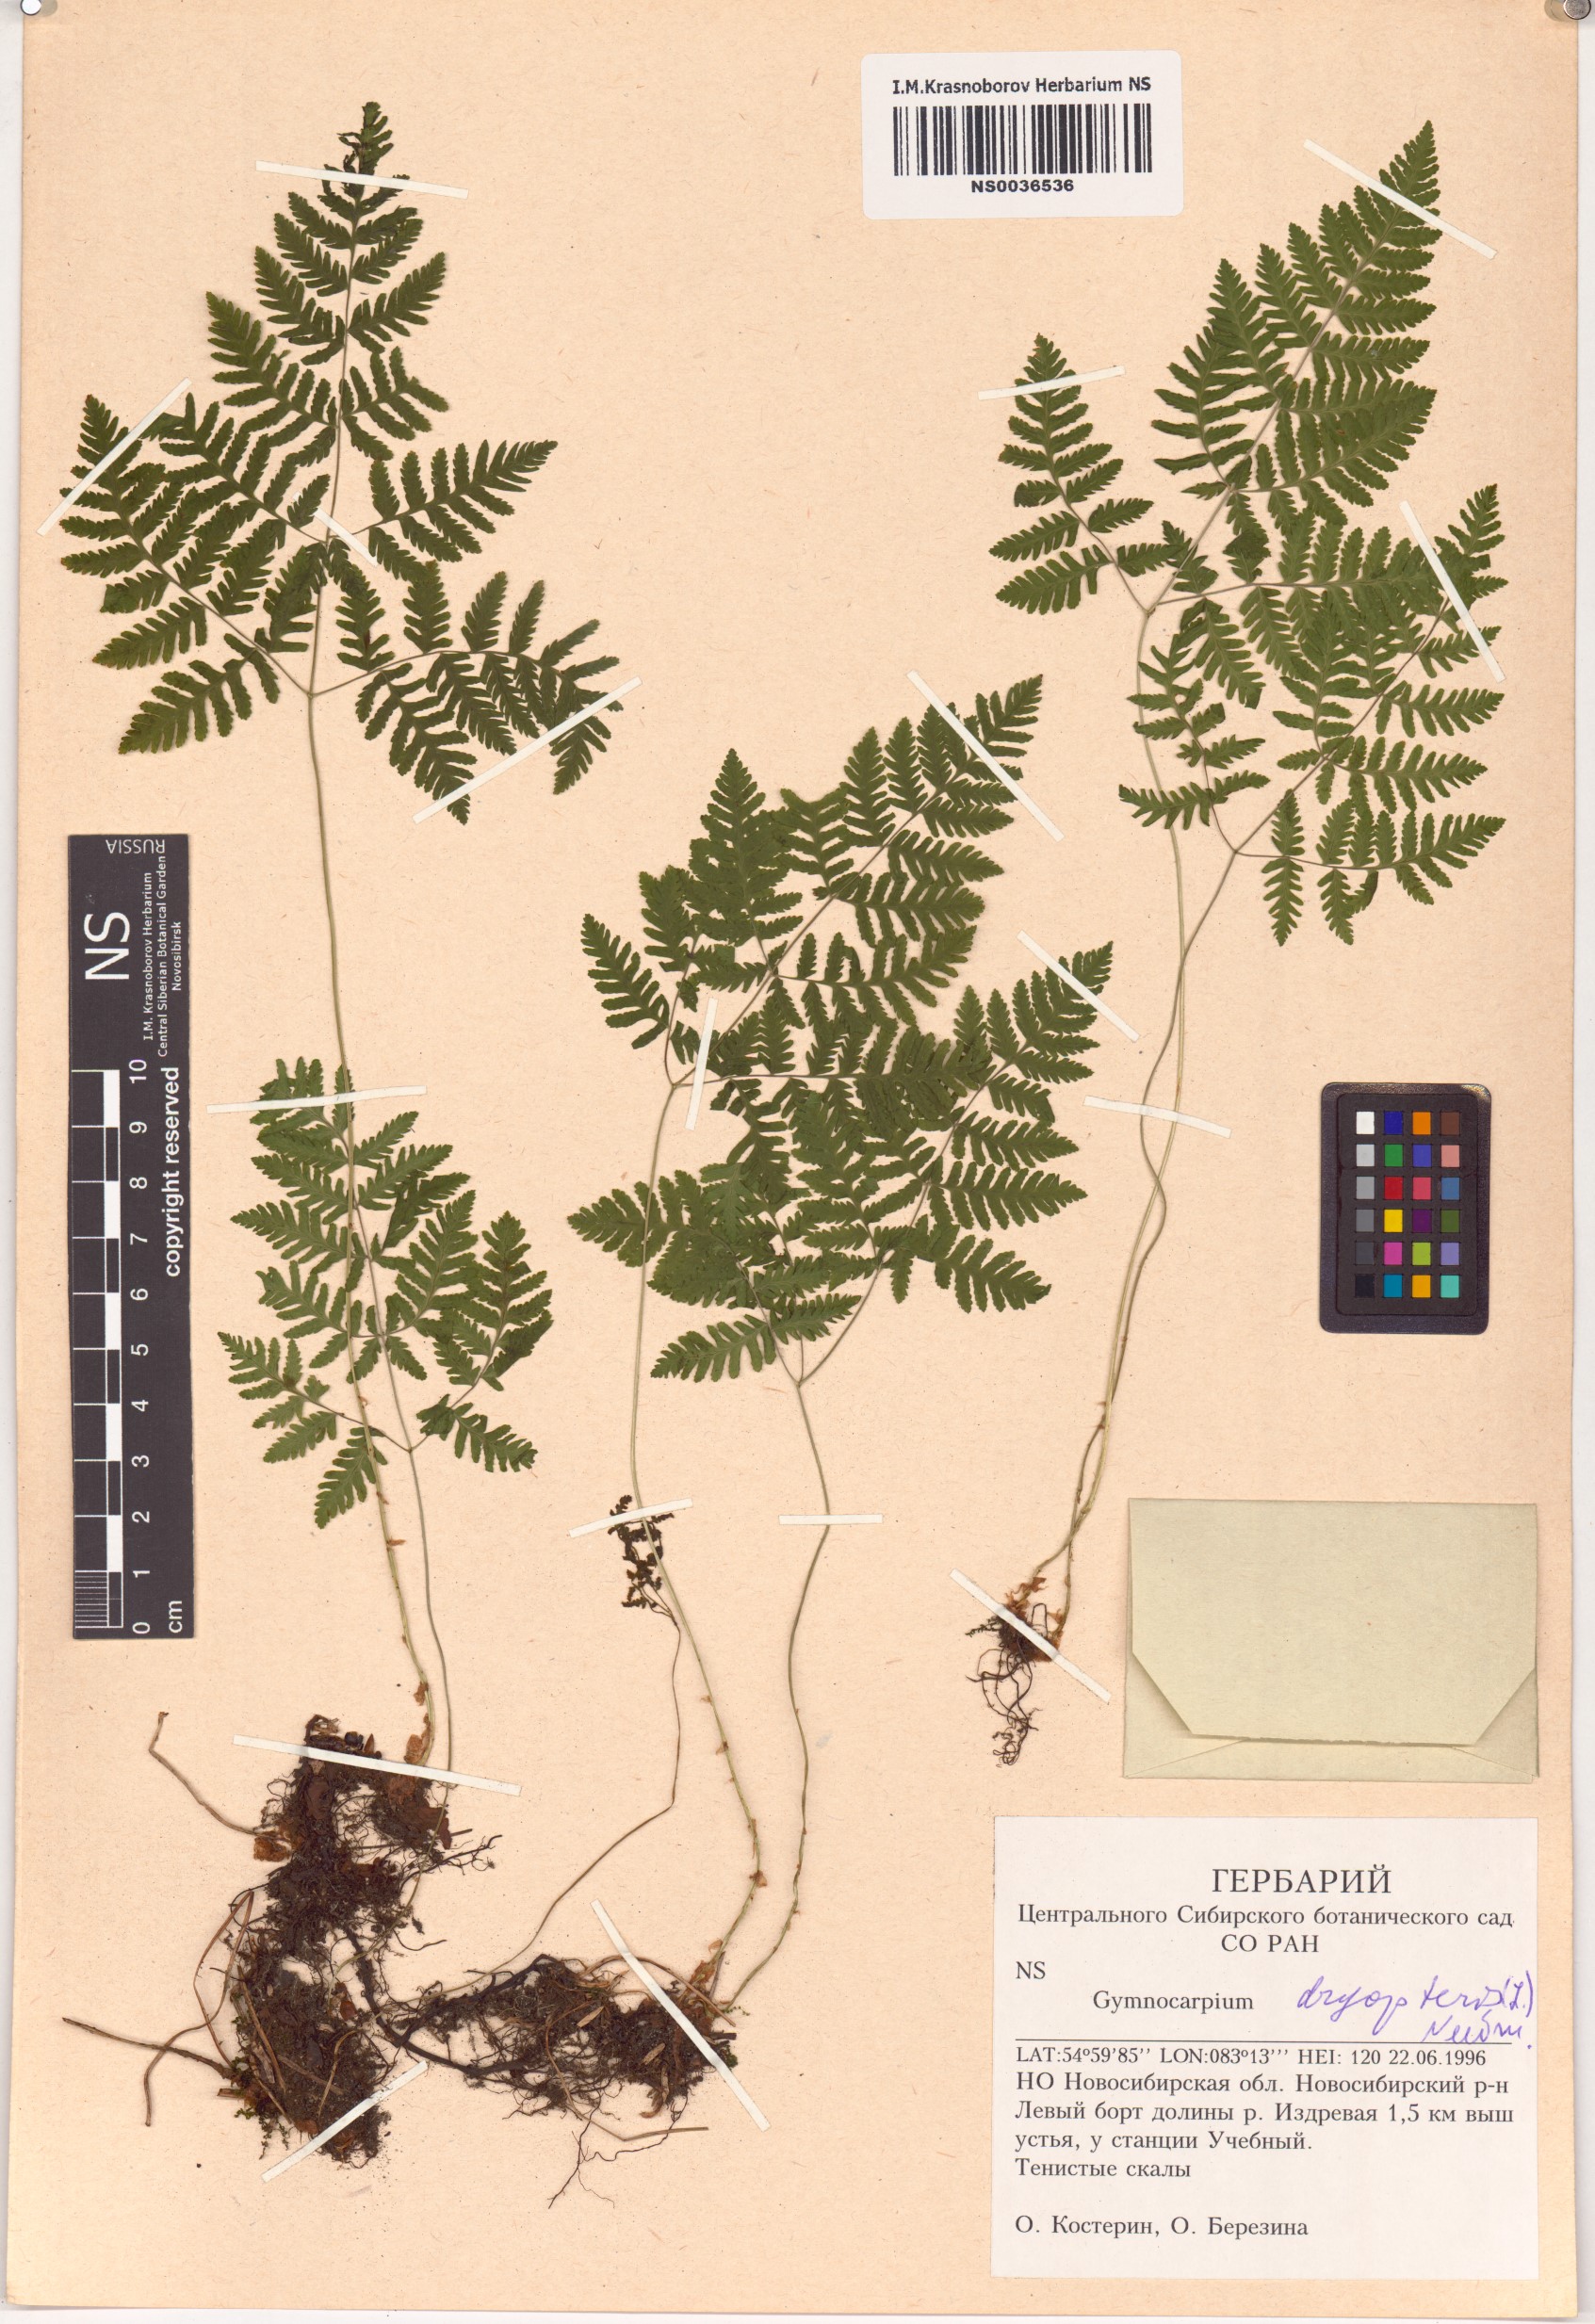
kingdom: Plantae
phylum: Tracheophyta
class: Polypodiopsida
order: Polypodiales
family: Cystopteridaceae
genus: Gymnocarpium
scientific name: Gymnocarpium dryopteris
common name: Oak fern
